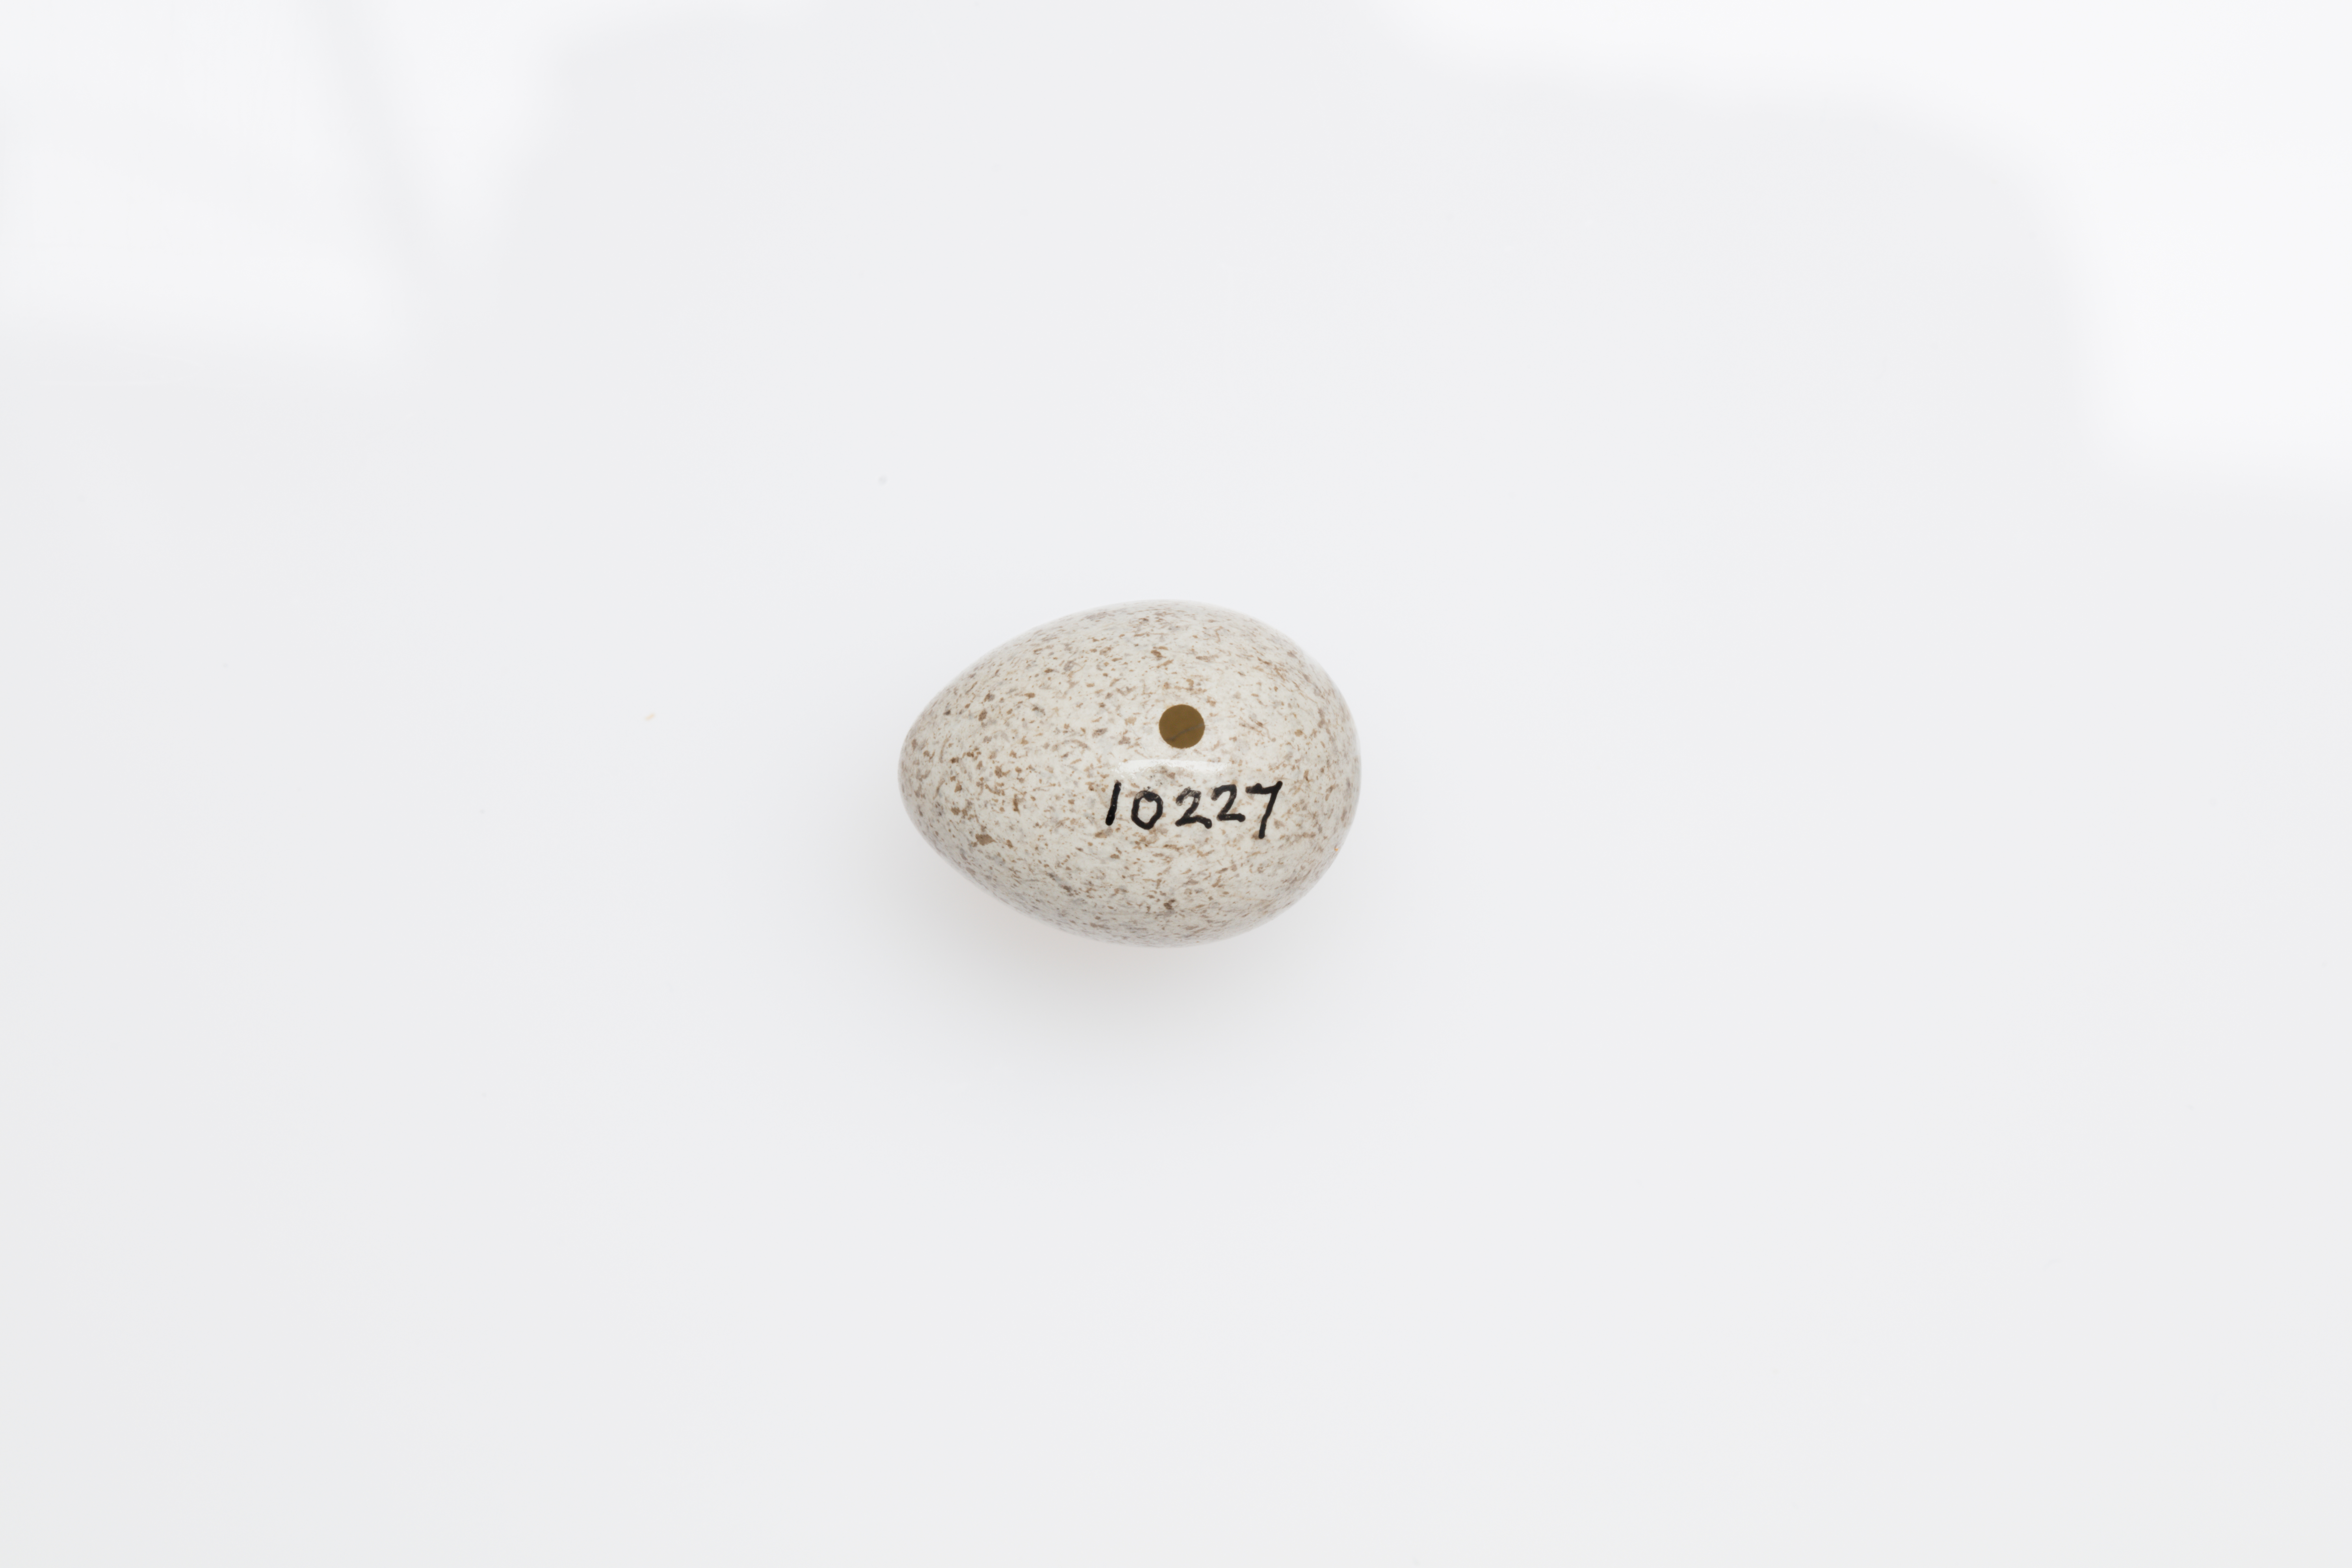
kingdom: Animalia
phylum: Chordata
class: Aves
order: Passeriformes
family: Motacillidae
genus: Motacilla
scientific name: Motacilla alba
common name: White wagtail
